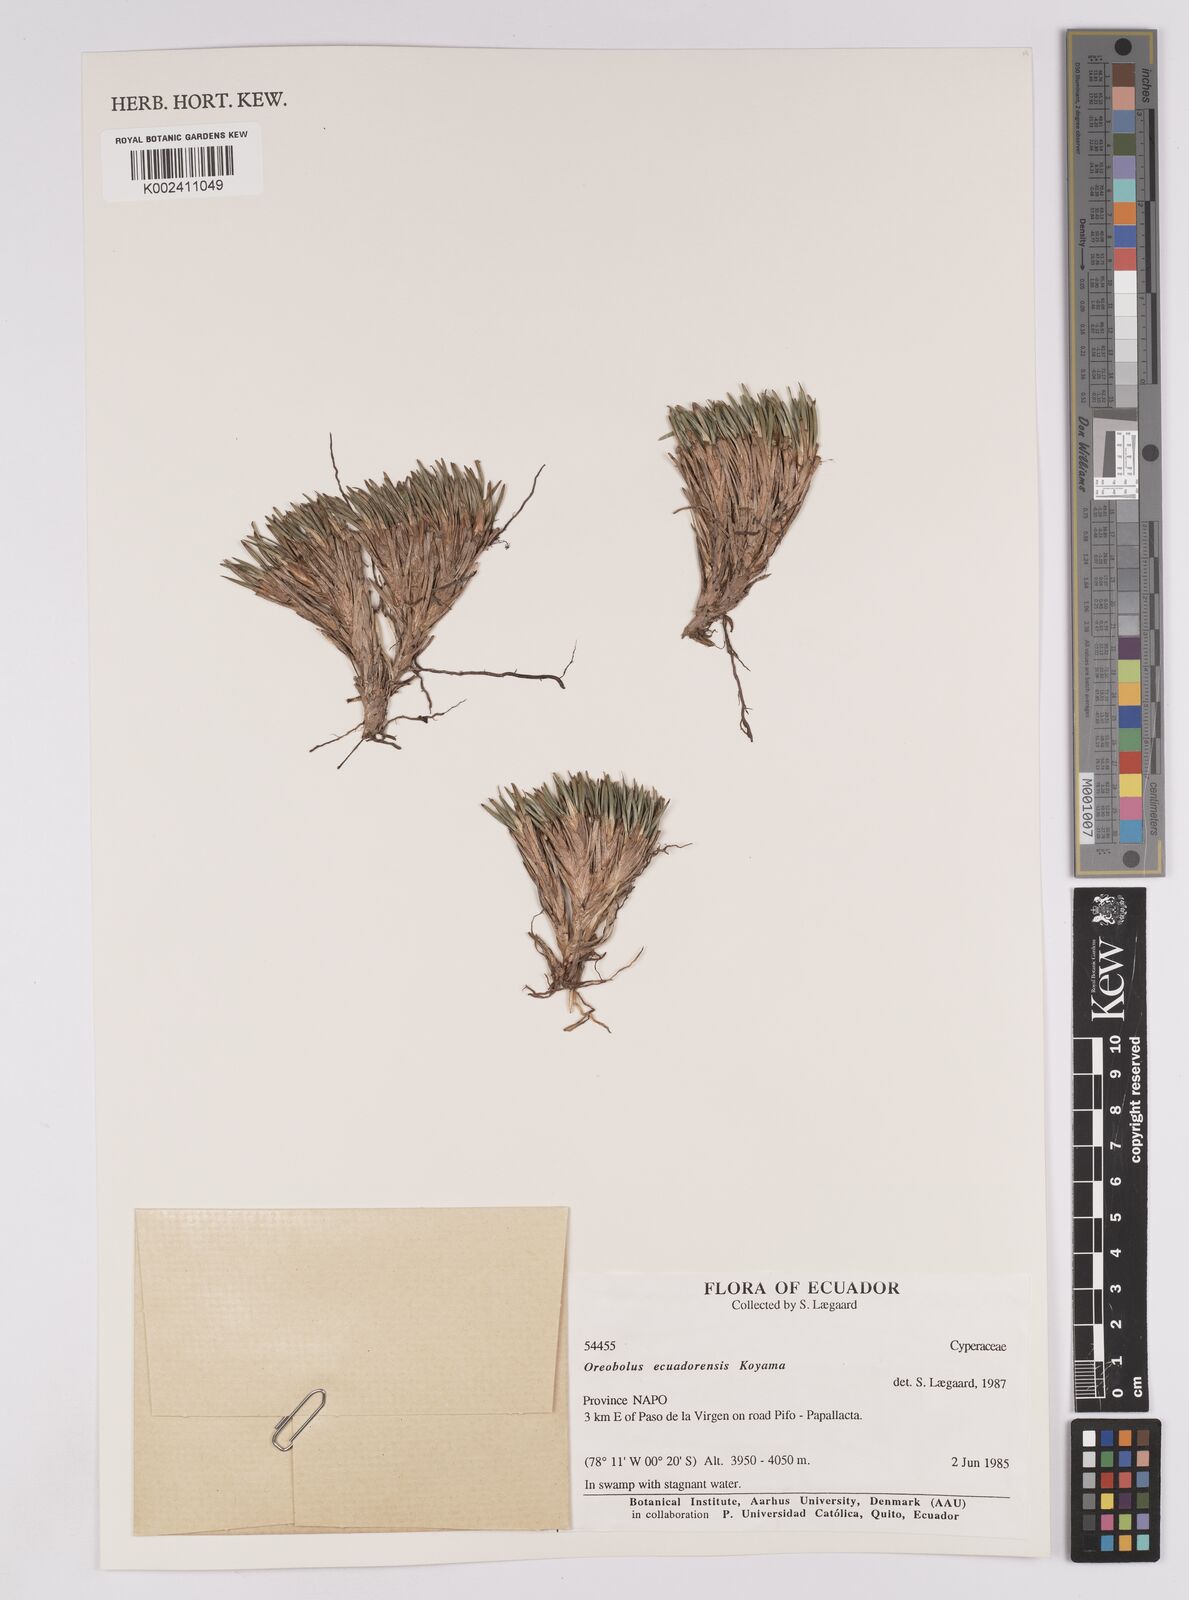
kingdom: Plantae
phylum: Tracheophyta
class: Liliopsida
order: Poales
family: Cyperaceae
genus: Oreobolus
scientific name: Oreobolus ecuadorensis
